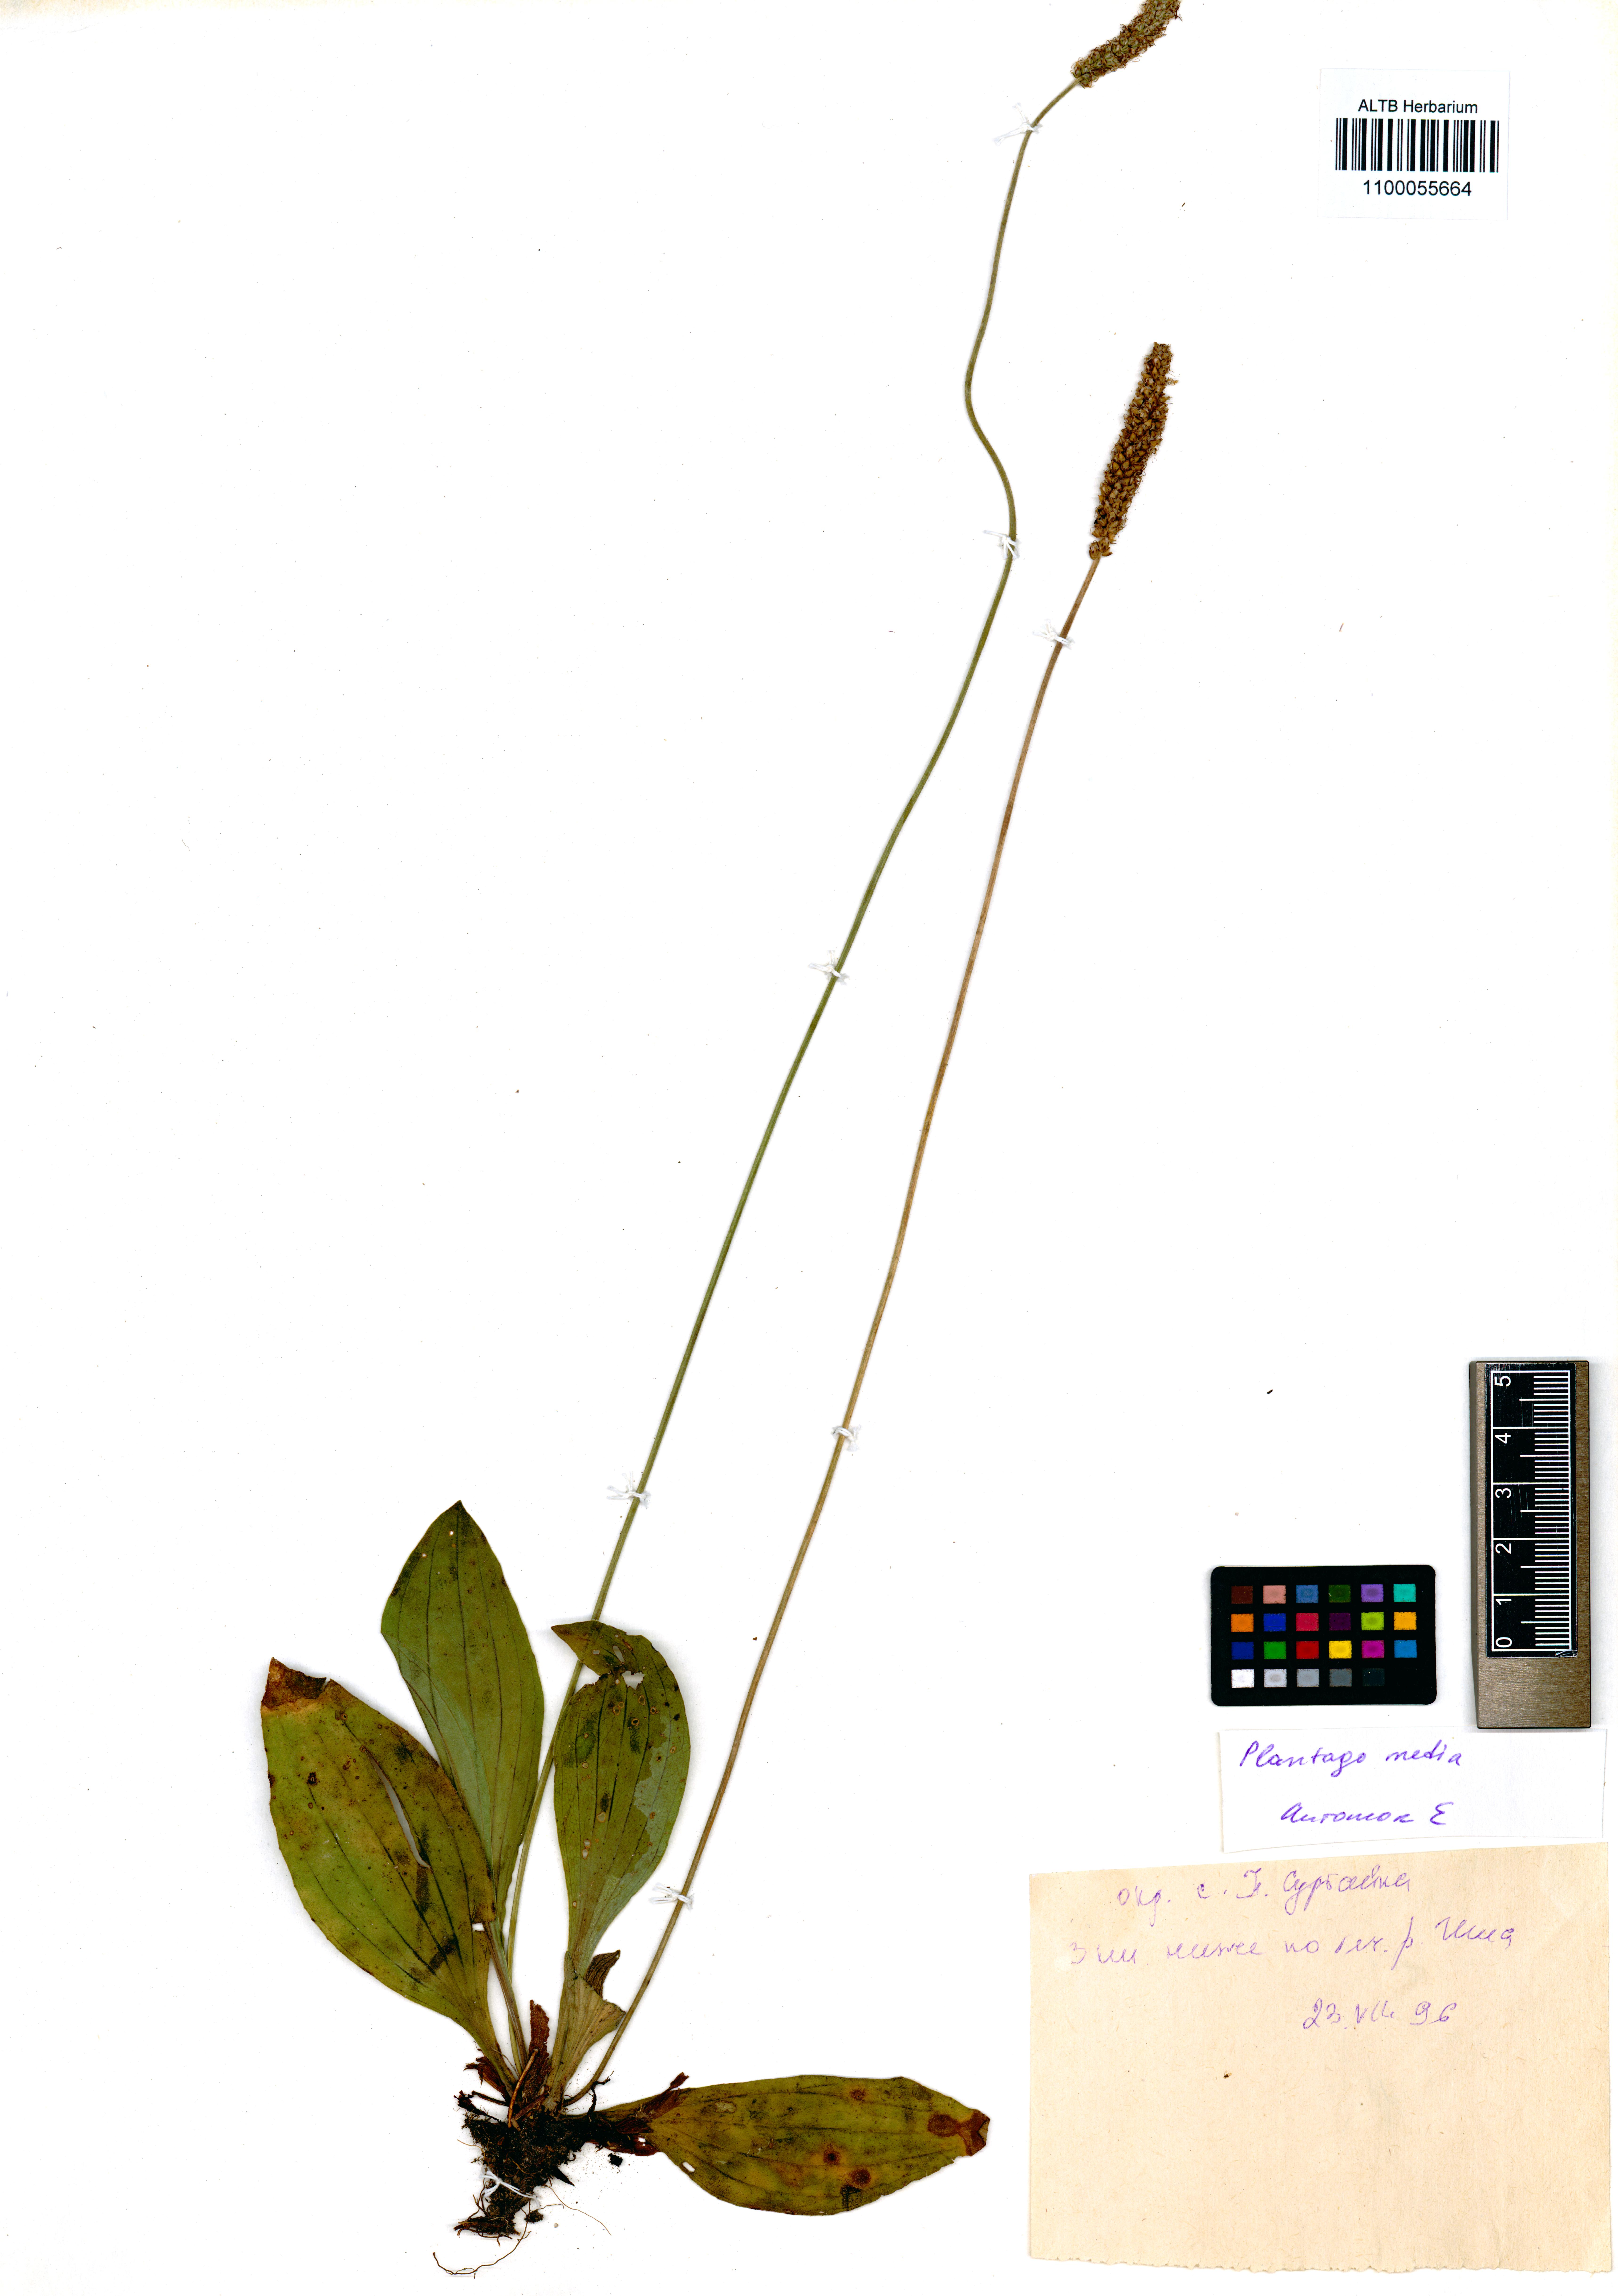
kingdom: Plantae
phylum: Tracheophyta
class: Magnoliopsida
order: Lamiales
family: Plantaginaceae
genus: Plantago
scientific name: Plantago media
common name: Hoary plantain
